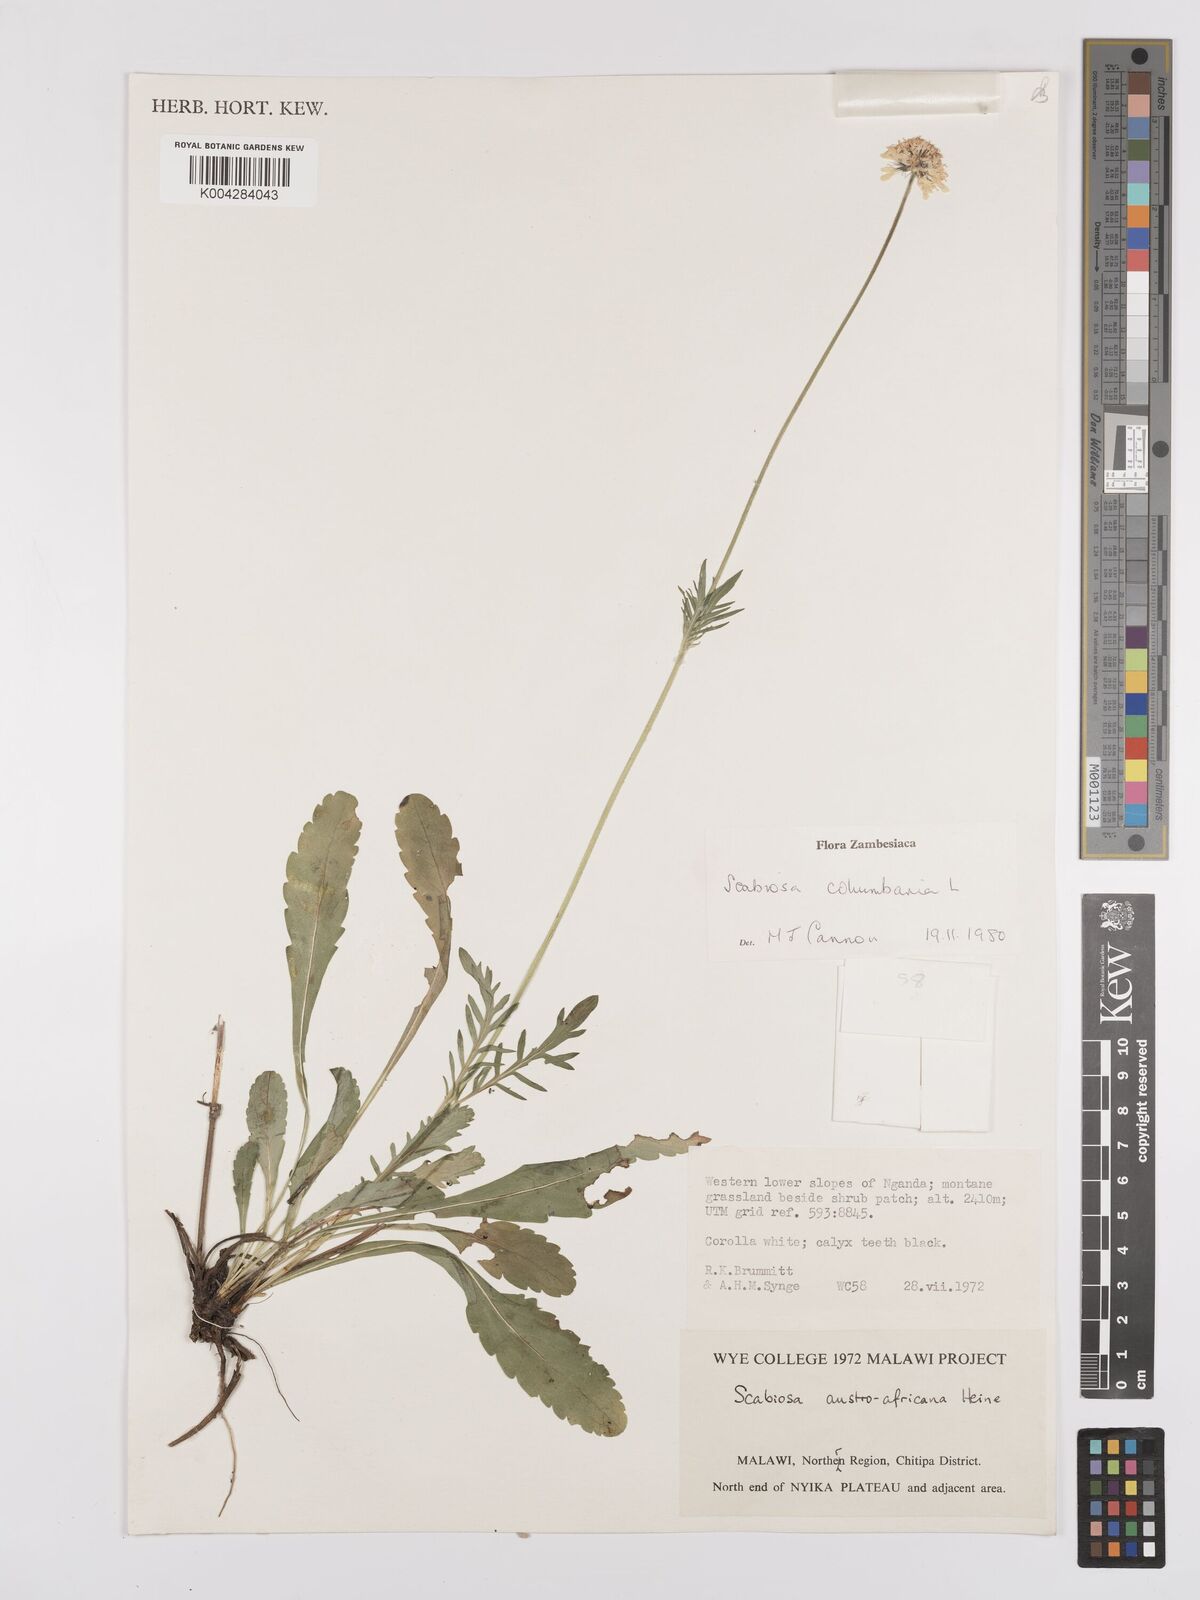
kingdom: Plantae
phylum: Tracheophyta
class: Magnoliopsida
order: Dipsacales
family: Caprifoliaceae
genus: Scabiosa
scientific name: Scabiosa austroafricana
